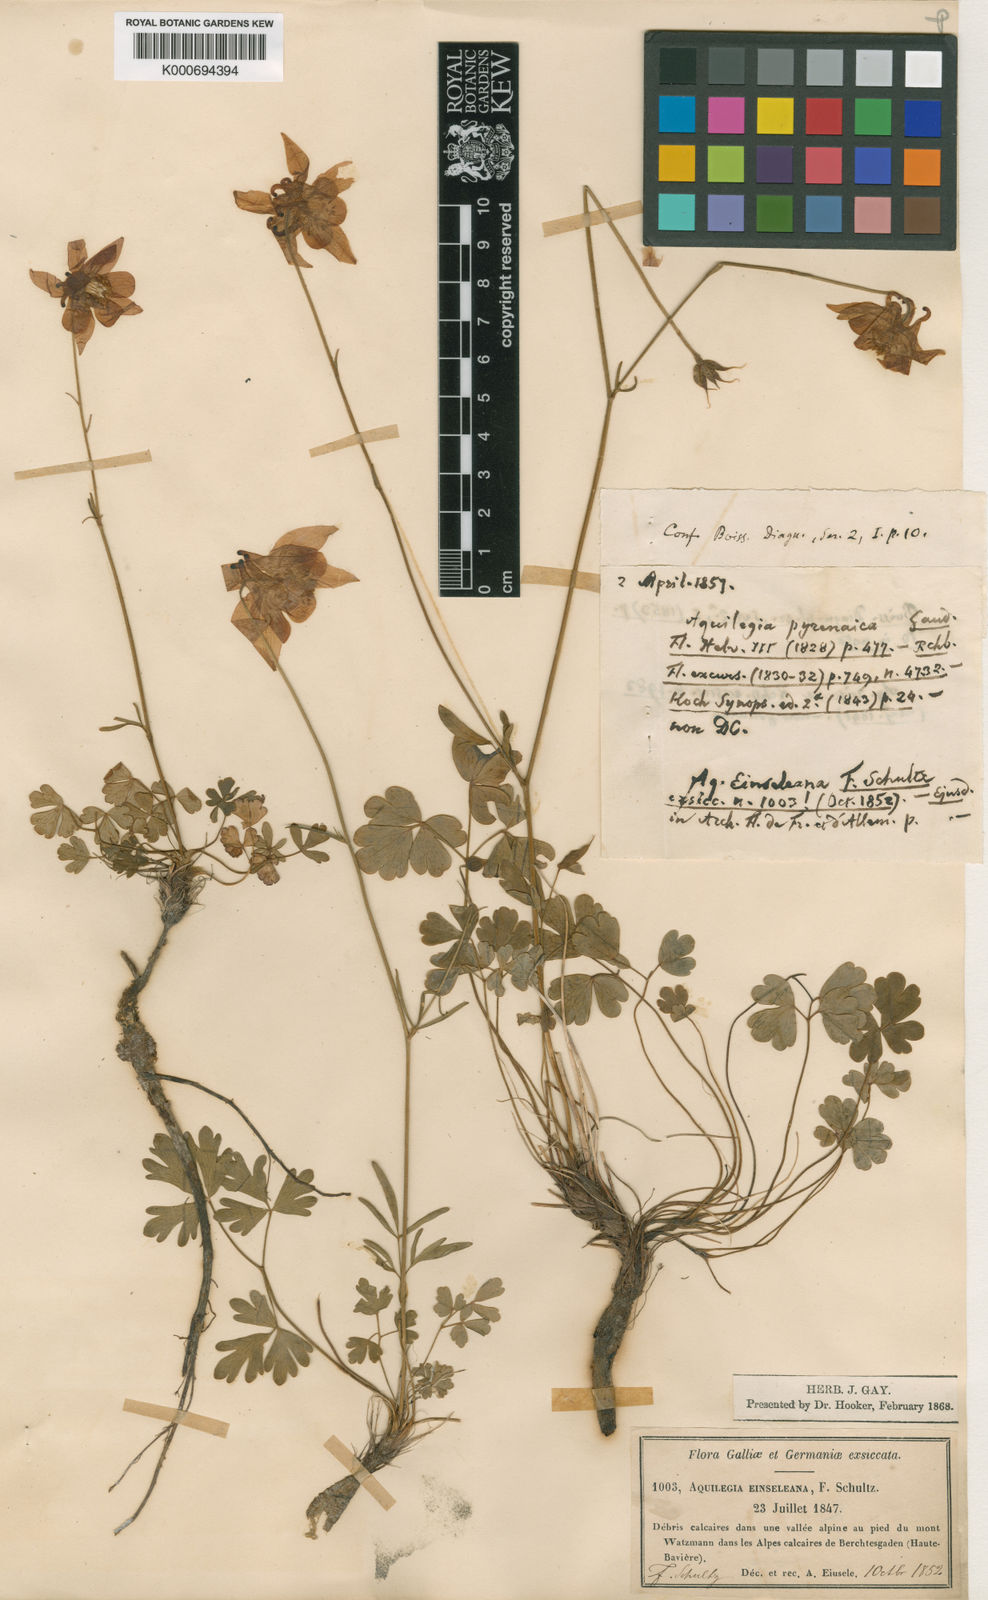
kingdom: Plantae
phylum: Tracheophyta
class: Magnoliopsida
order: Ranunculales
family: Ranunculaceae
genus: Aquilegia
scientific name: Aquilegia einseleana
